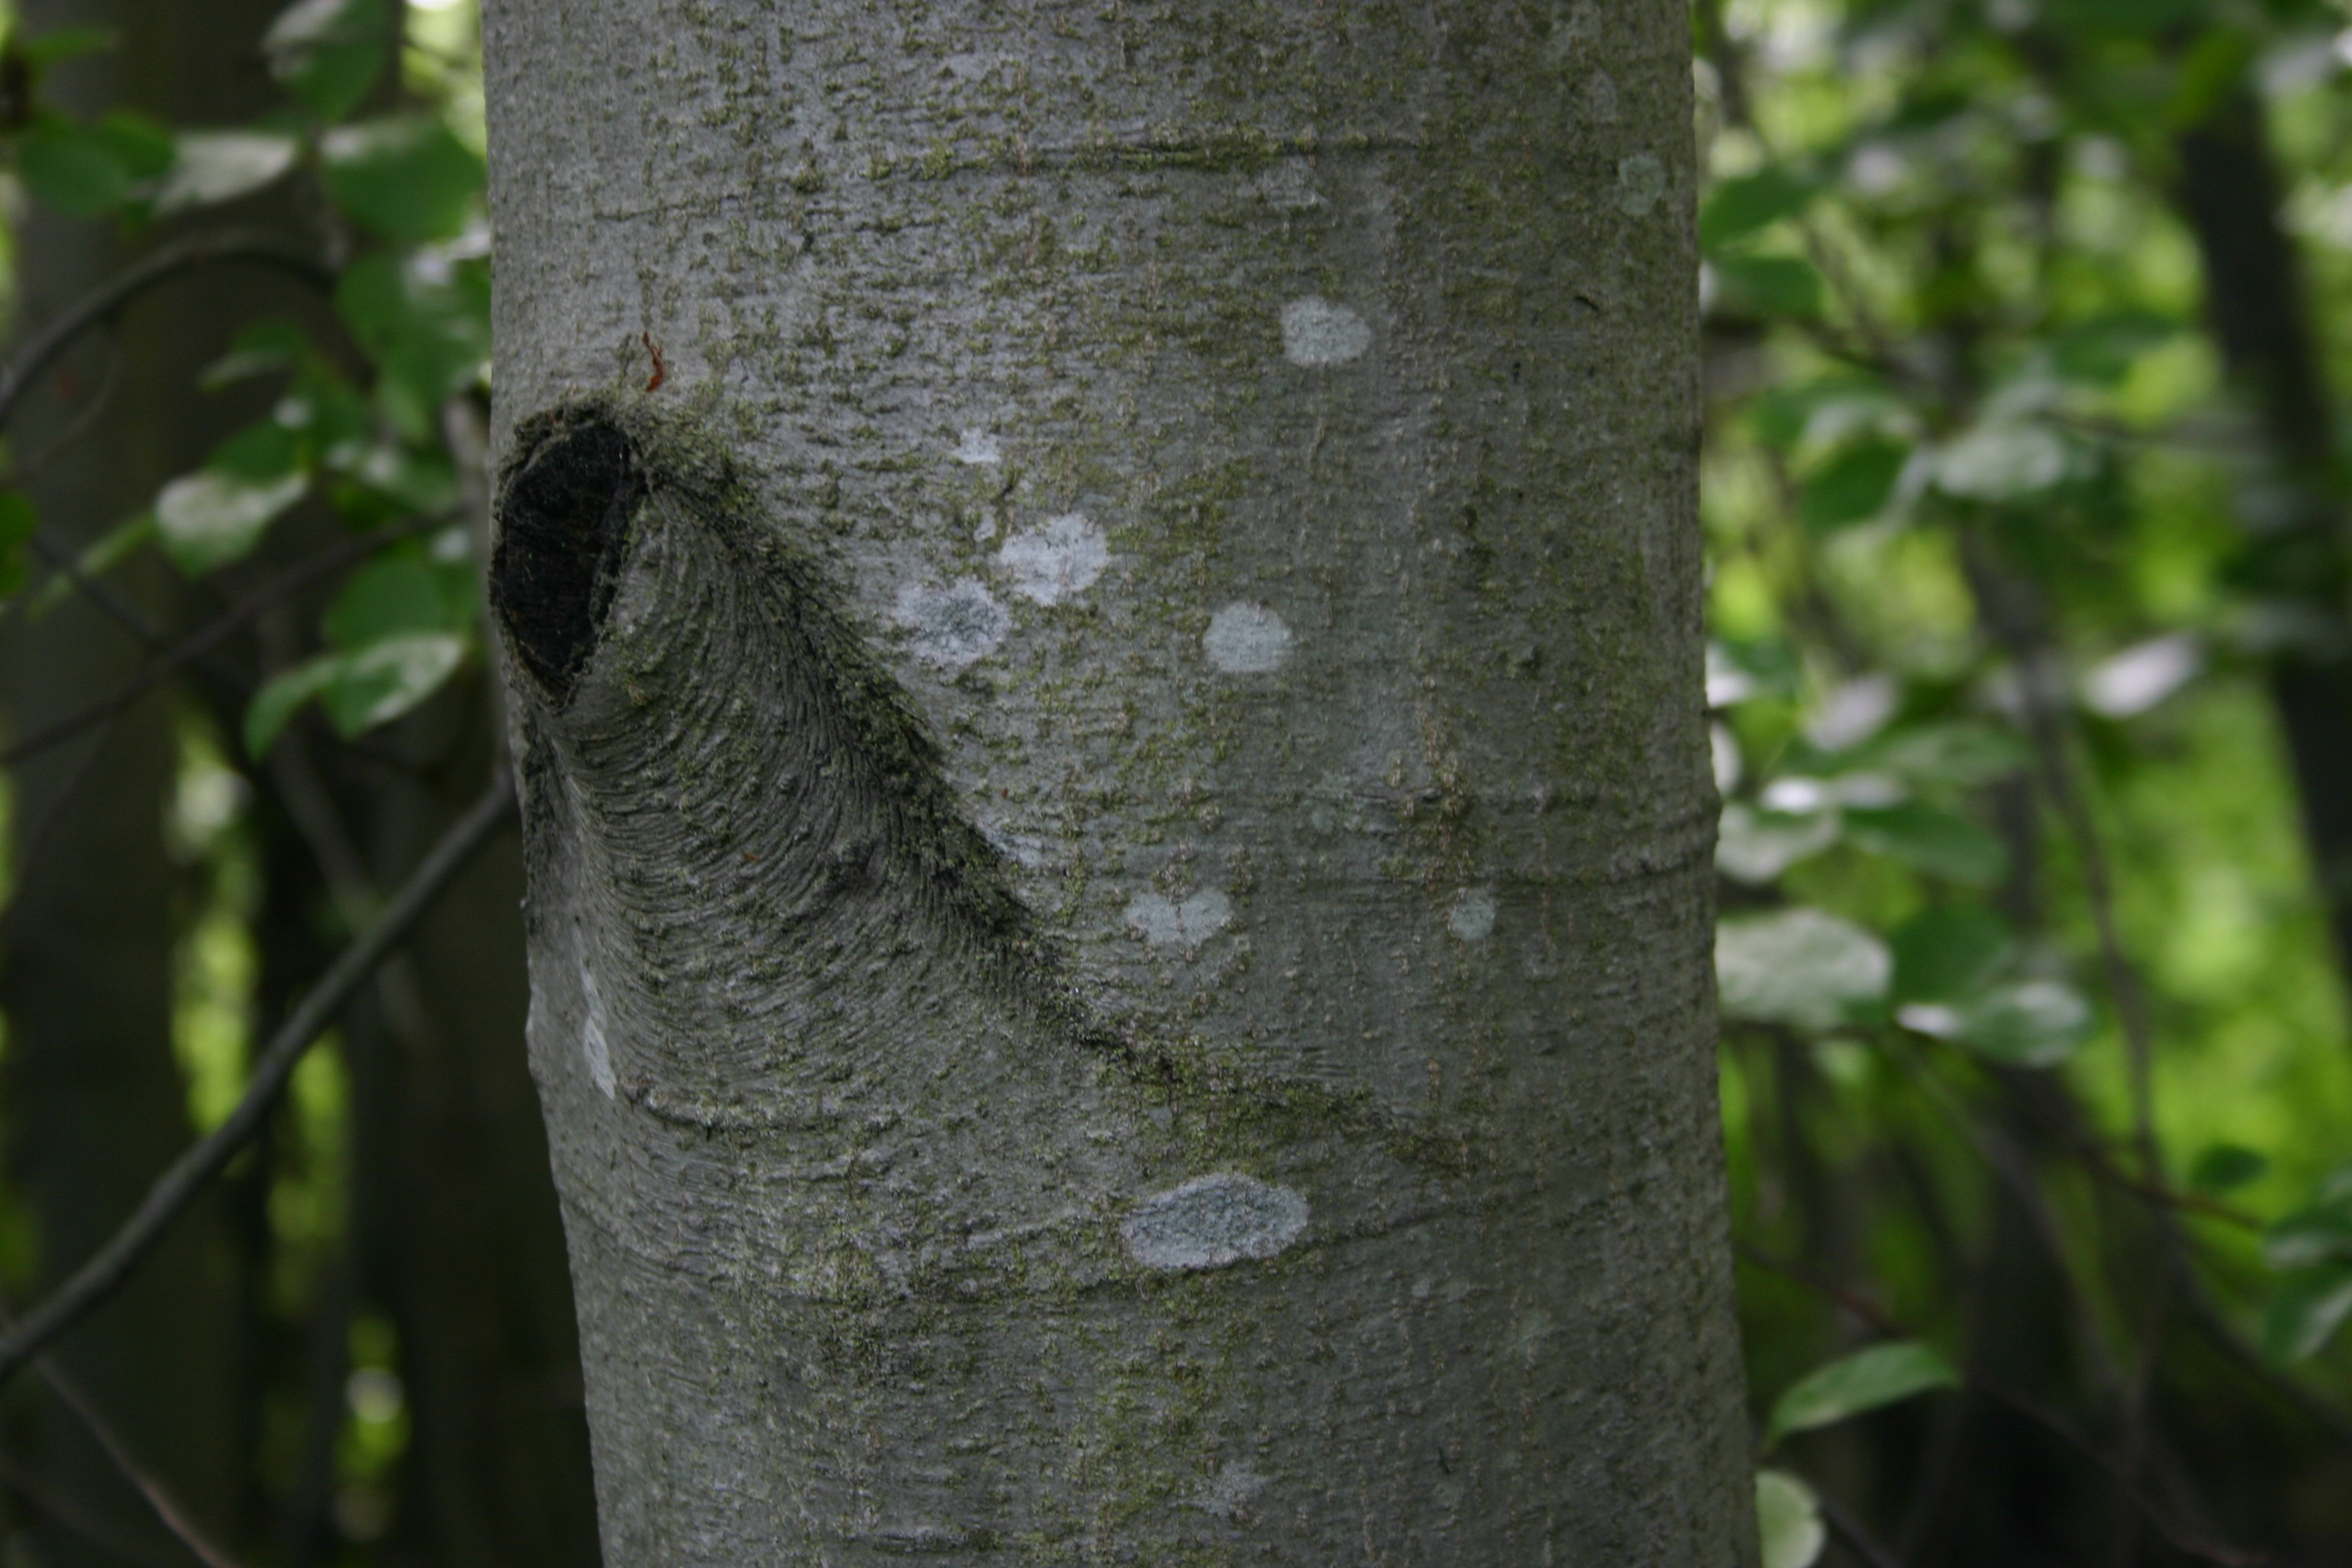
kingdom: Fungi
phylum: Ascomycota
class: Lecanoromycetes
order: Lecanorales
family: Lecanoraceae
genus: Lecanora
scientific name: Lecanora
